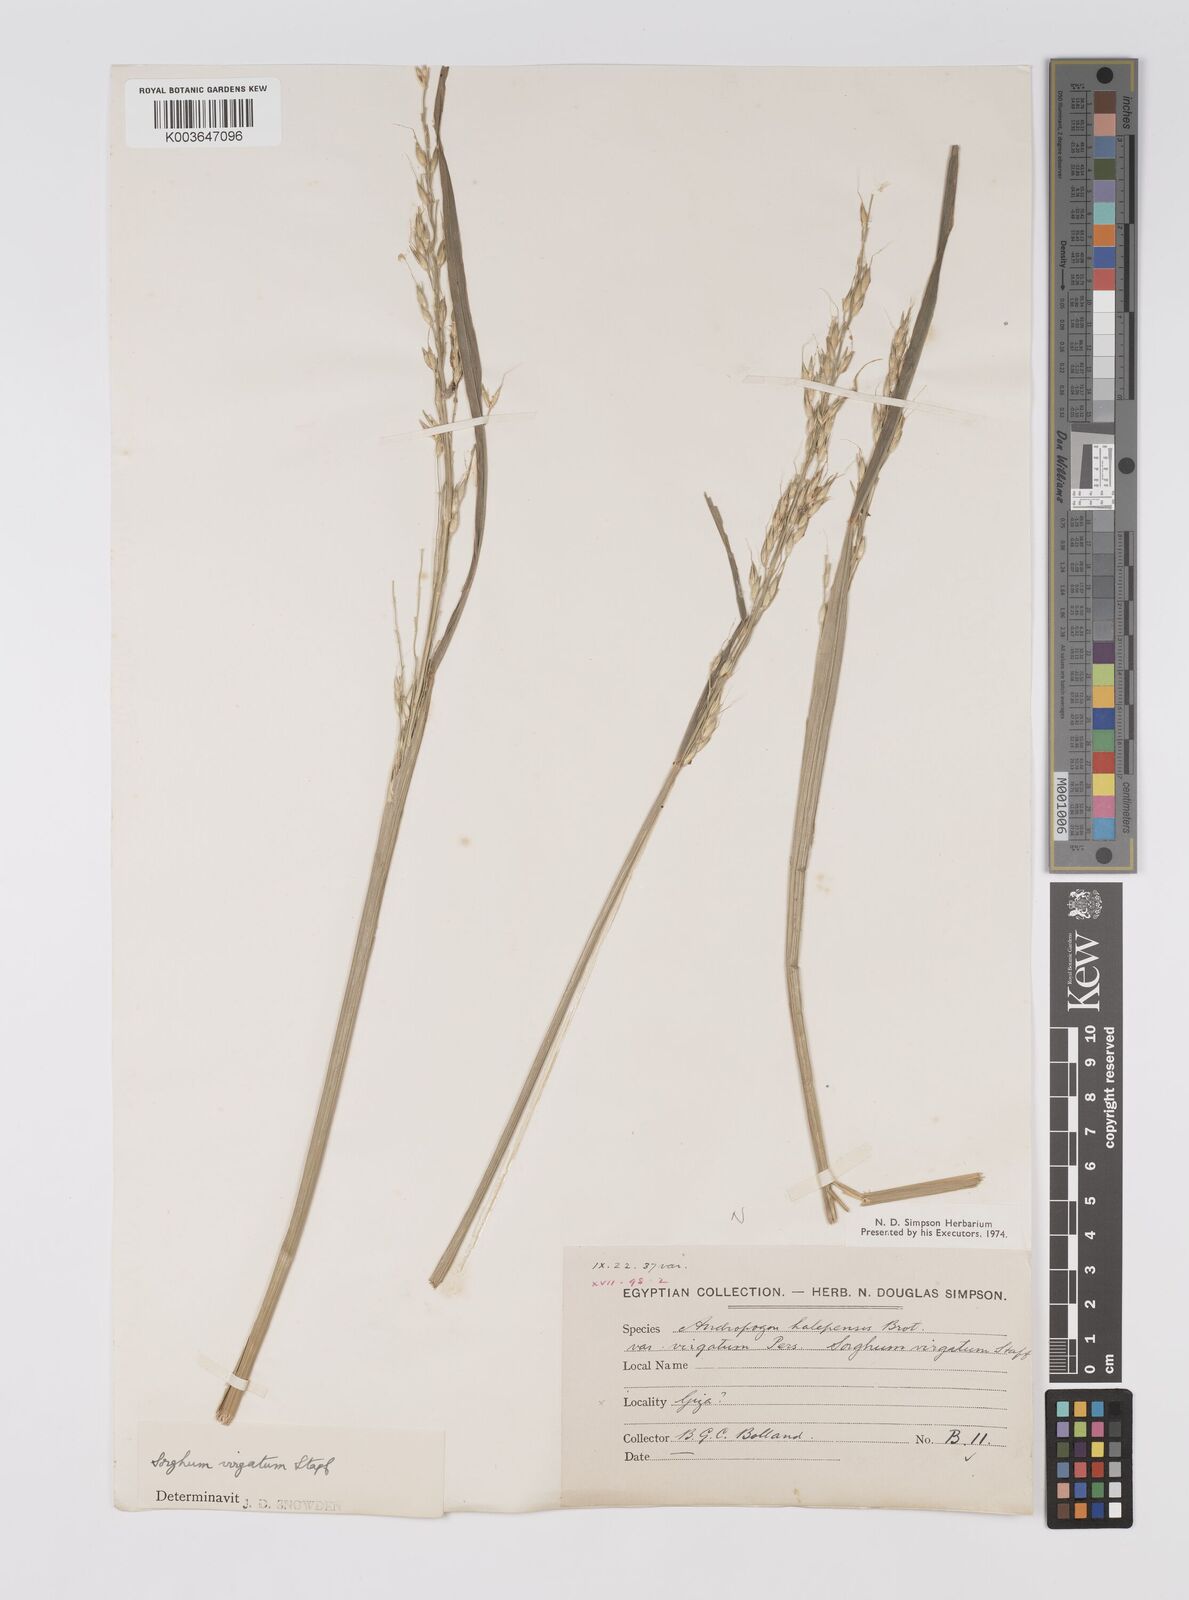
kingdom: Plantae
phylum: Tracheophyta
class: Liliopsida
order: Poales
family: Poaceae
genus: Sorghum
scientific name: Sorghum virgatum
